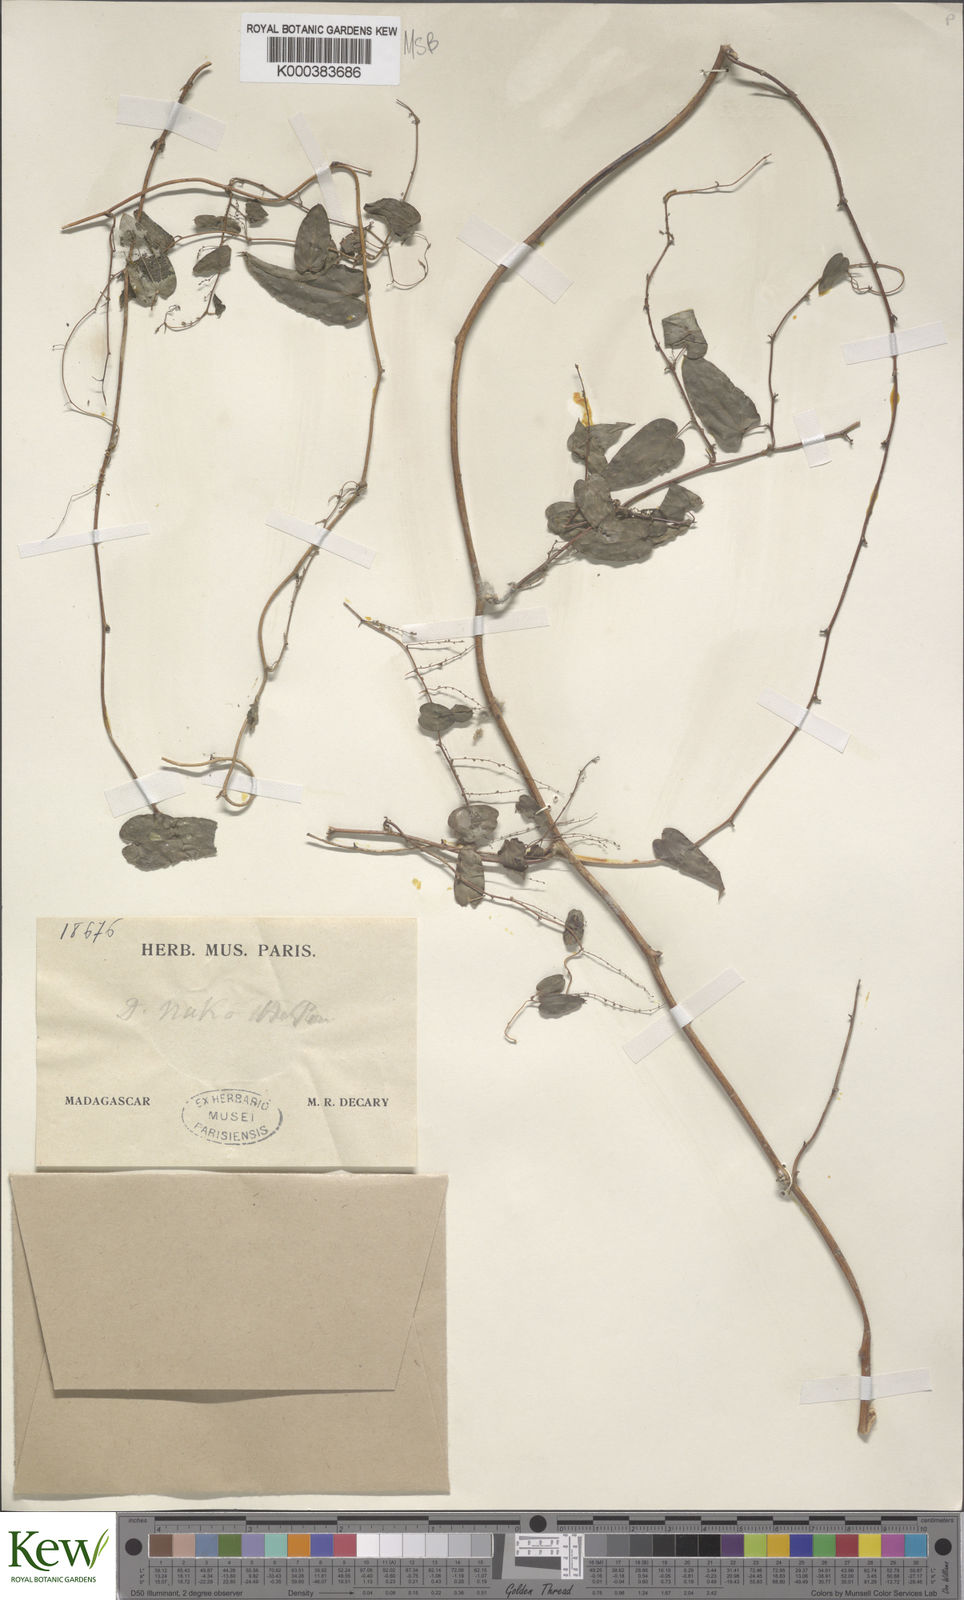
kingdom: Plantae
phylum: Tracheophyta
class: Liliopsida
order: Dioscoreales
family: Dioscoreaceae
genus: Dioscorea
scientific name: Dioscorea
